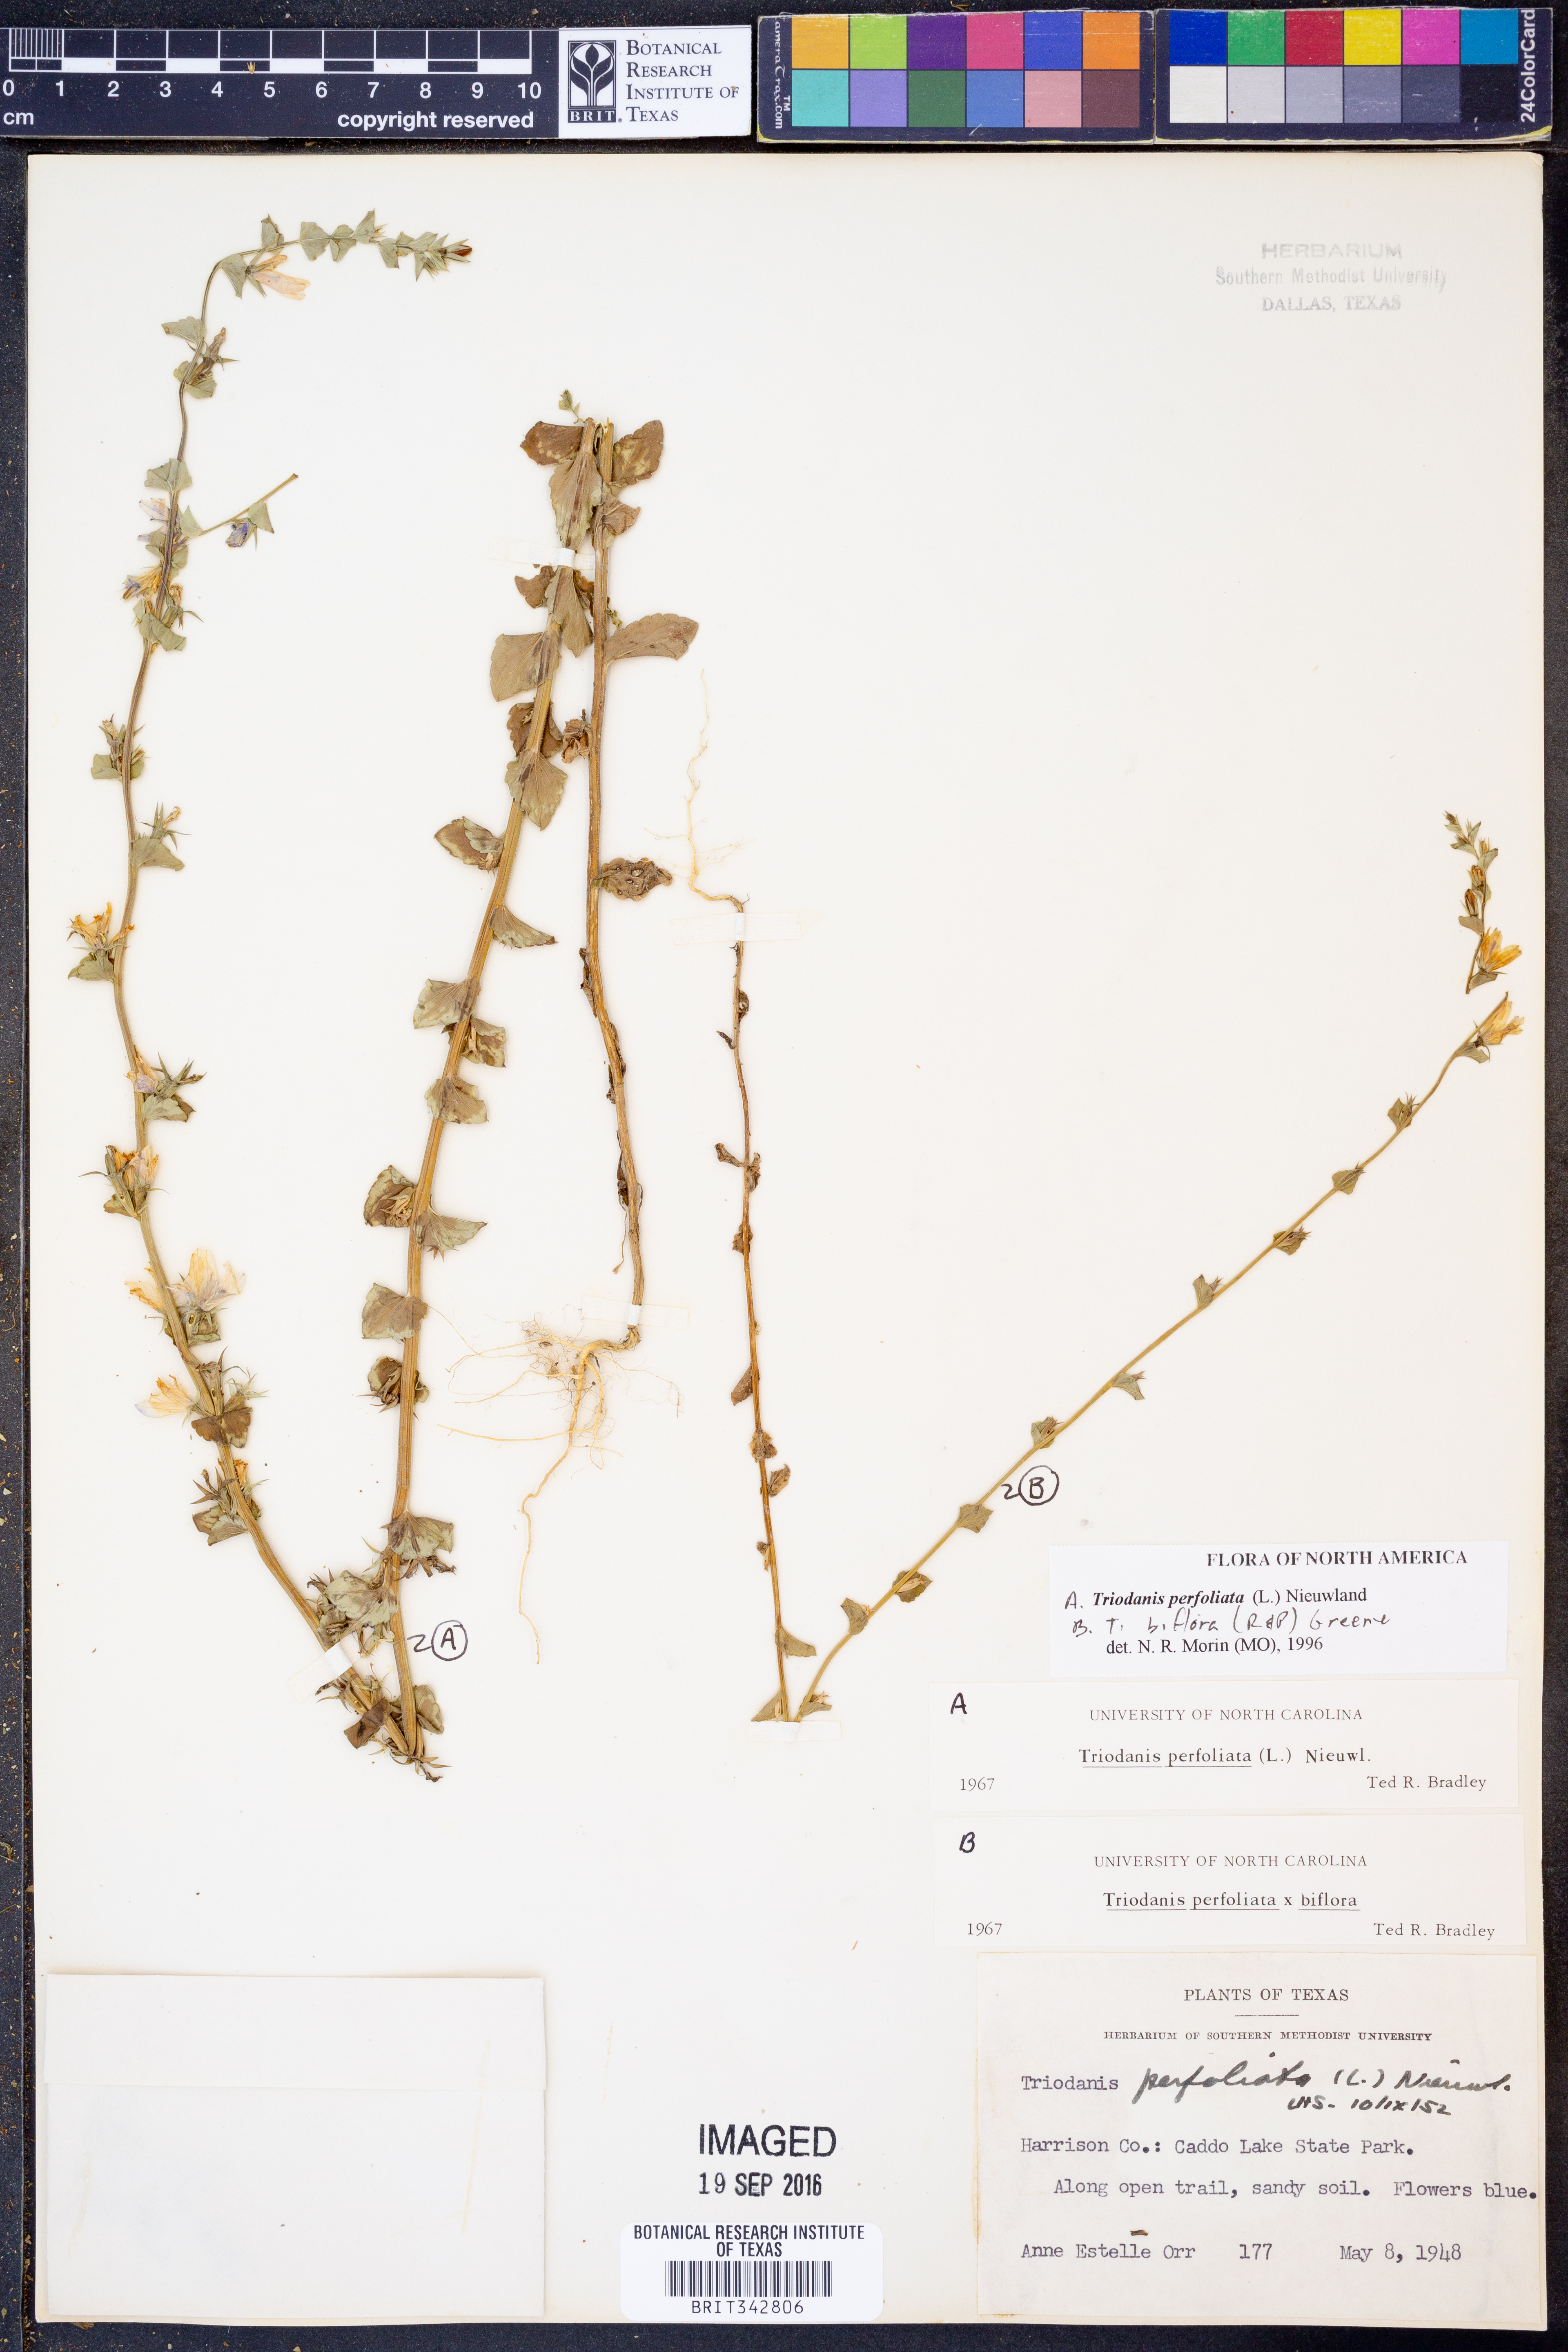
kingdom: Plantae
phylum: Tracheophyta
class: Magnoliopsida
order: Asterales
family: Campanulaceae
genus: Triodanis
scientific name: Triodanis perfoliata
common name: Clasping venus' looking-glass
